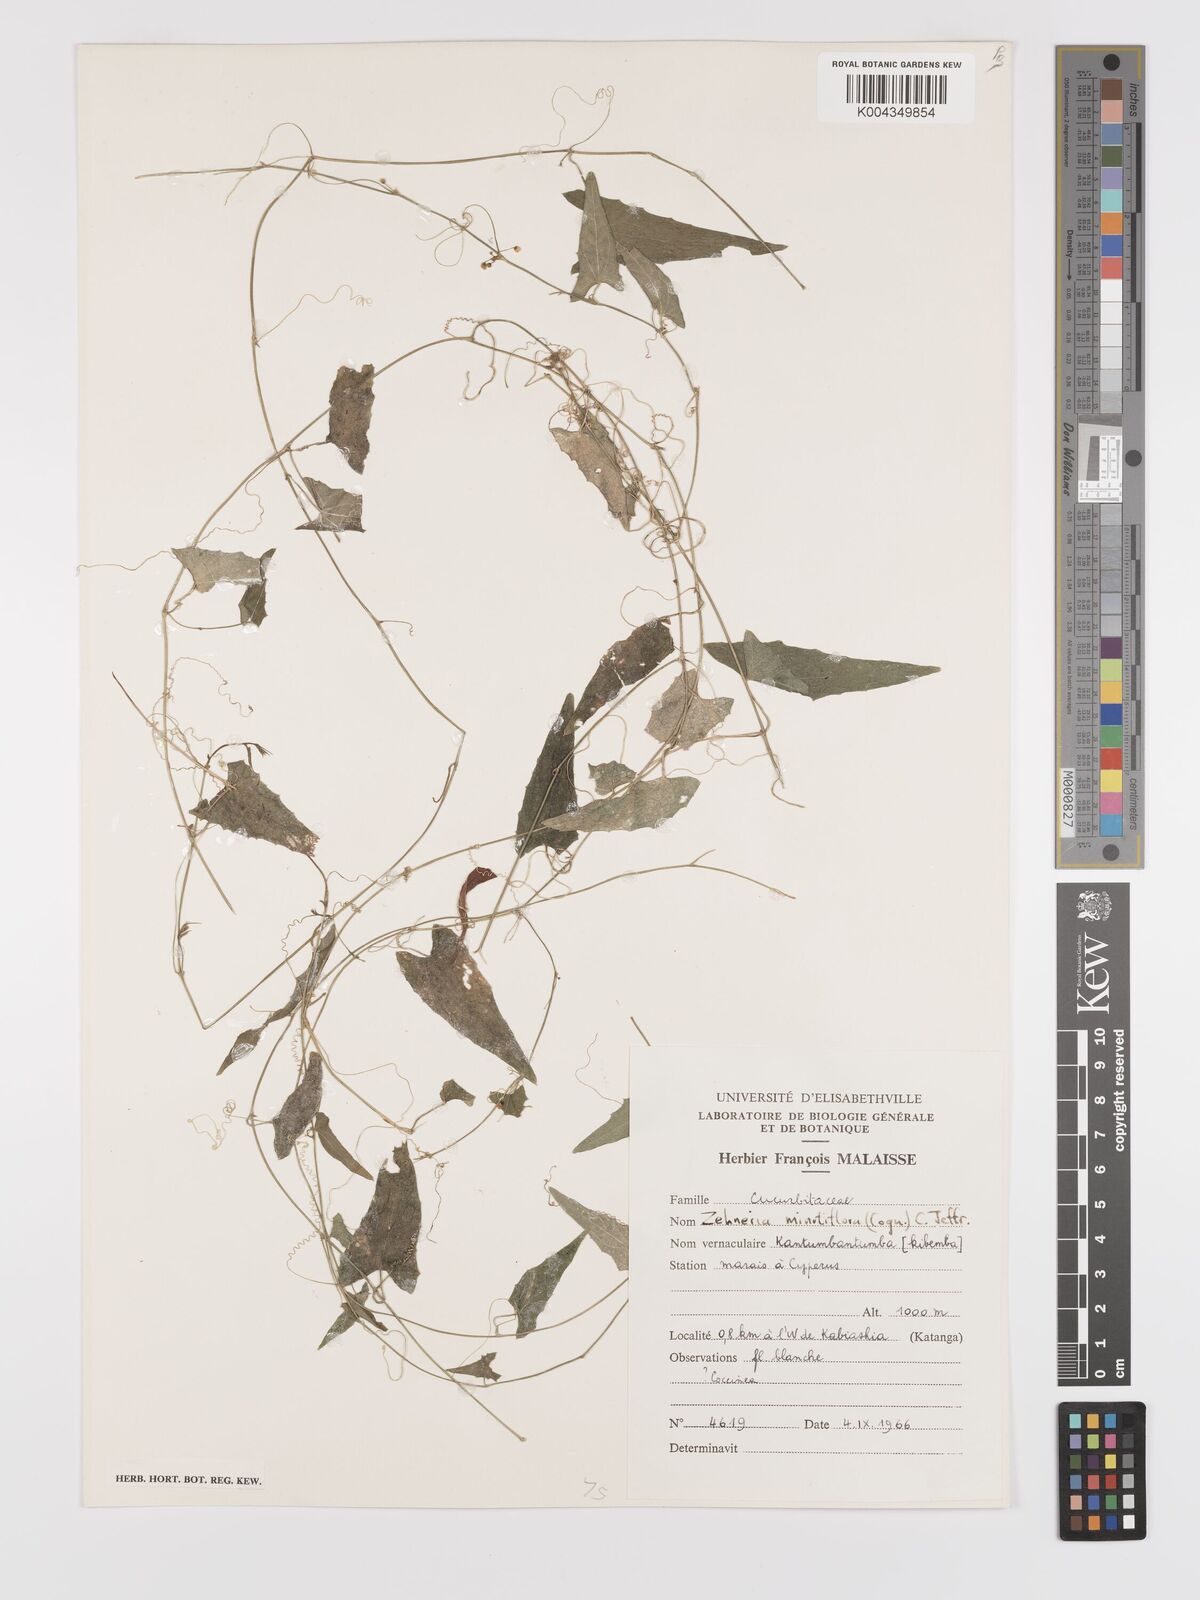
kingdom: Plantae
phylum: Tracheophyta
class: Magnoliopsida
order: Cucurbitales
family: Cucurbitaceae
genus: Zehneria
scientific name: Zehneria minutiflora
